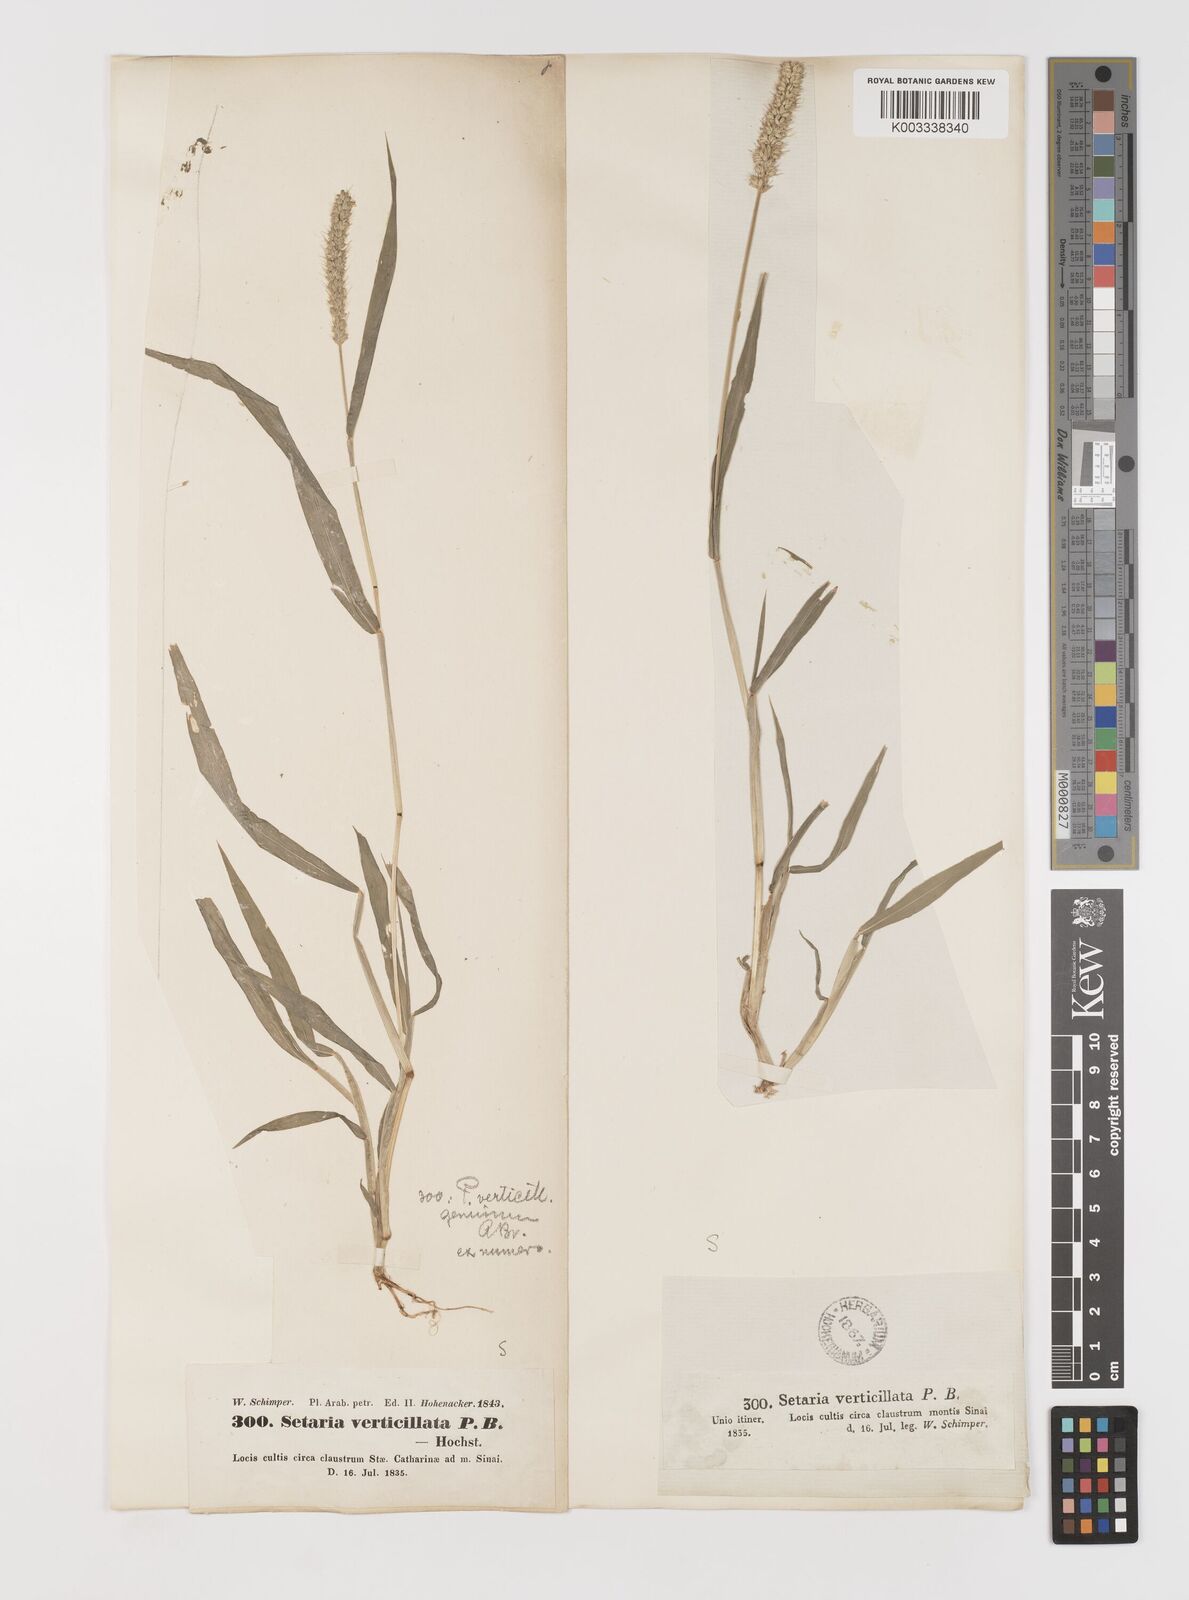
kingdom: Plantae
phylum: Tracheophyta
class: Liliopsida
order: Poales
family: Poaceae
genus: Setaria
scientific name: Setaria verticillata
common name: Hooked bristlegrass
